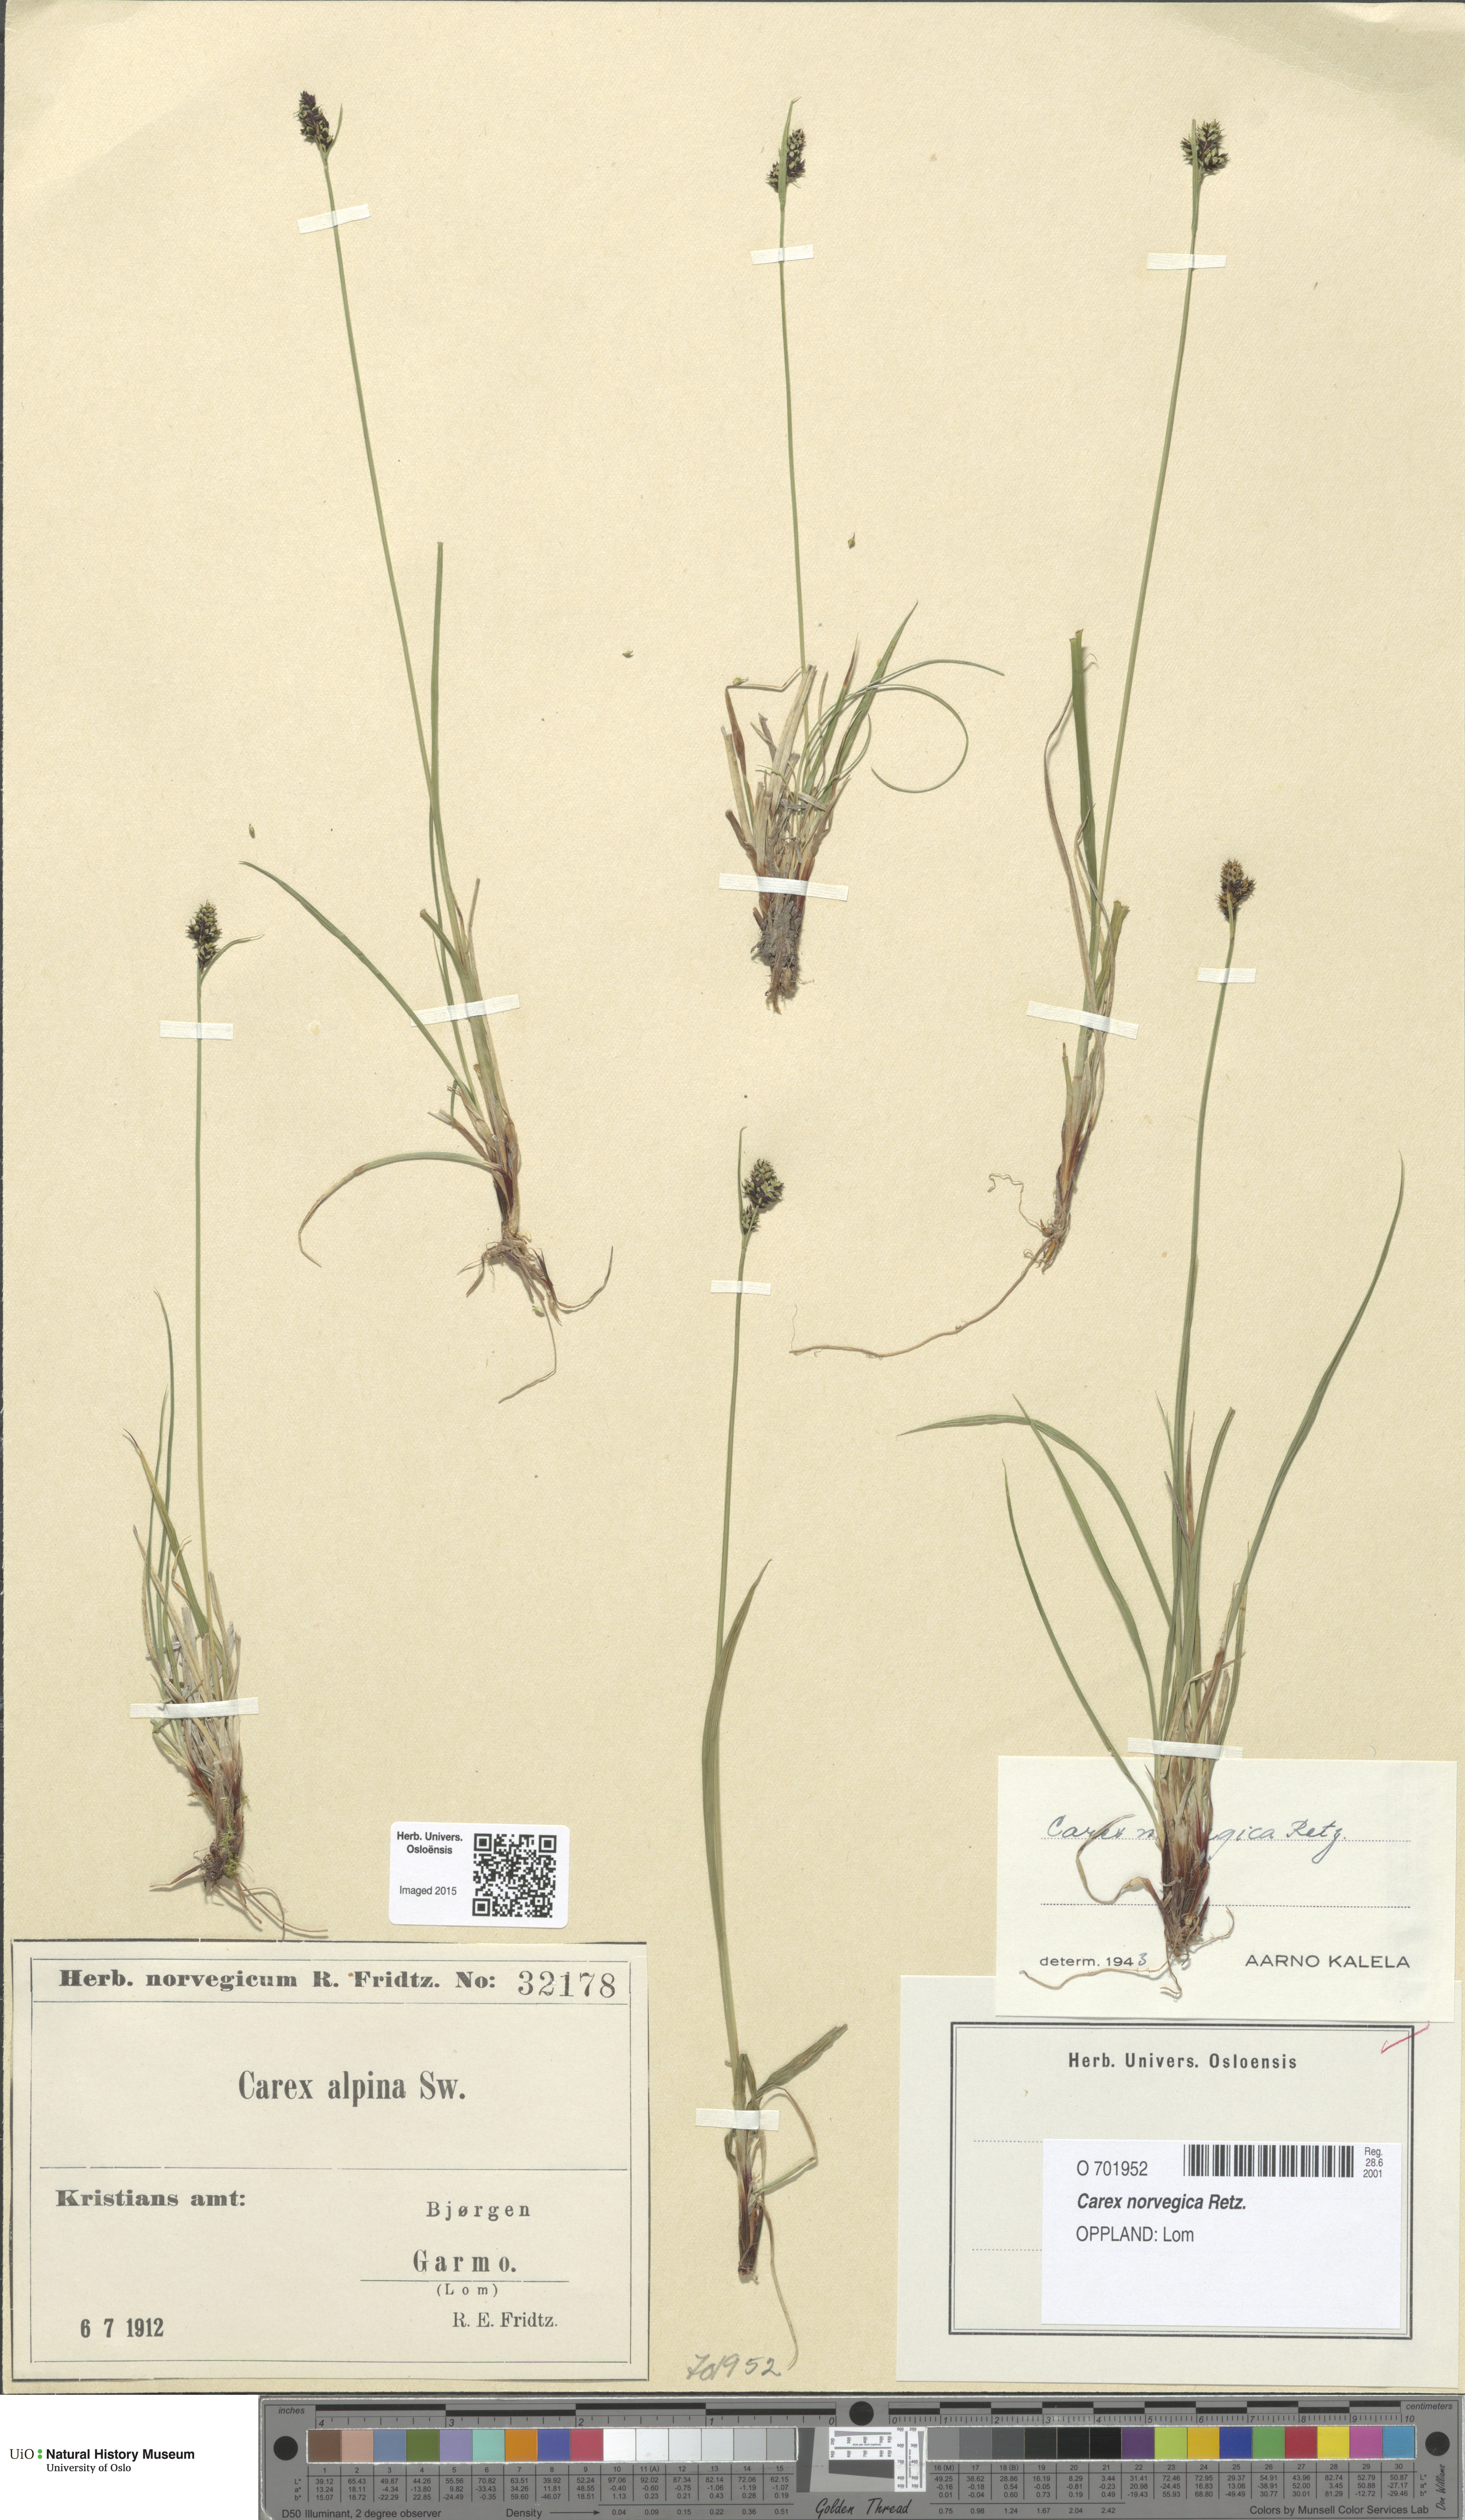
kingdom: Plantae
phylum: Tracheophyta
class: Liliopsida
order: Poales
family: Cyperaceae
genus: Carex
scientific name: Carex norvegica
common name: Close-headed alpine-sedge
